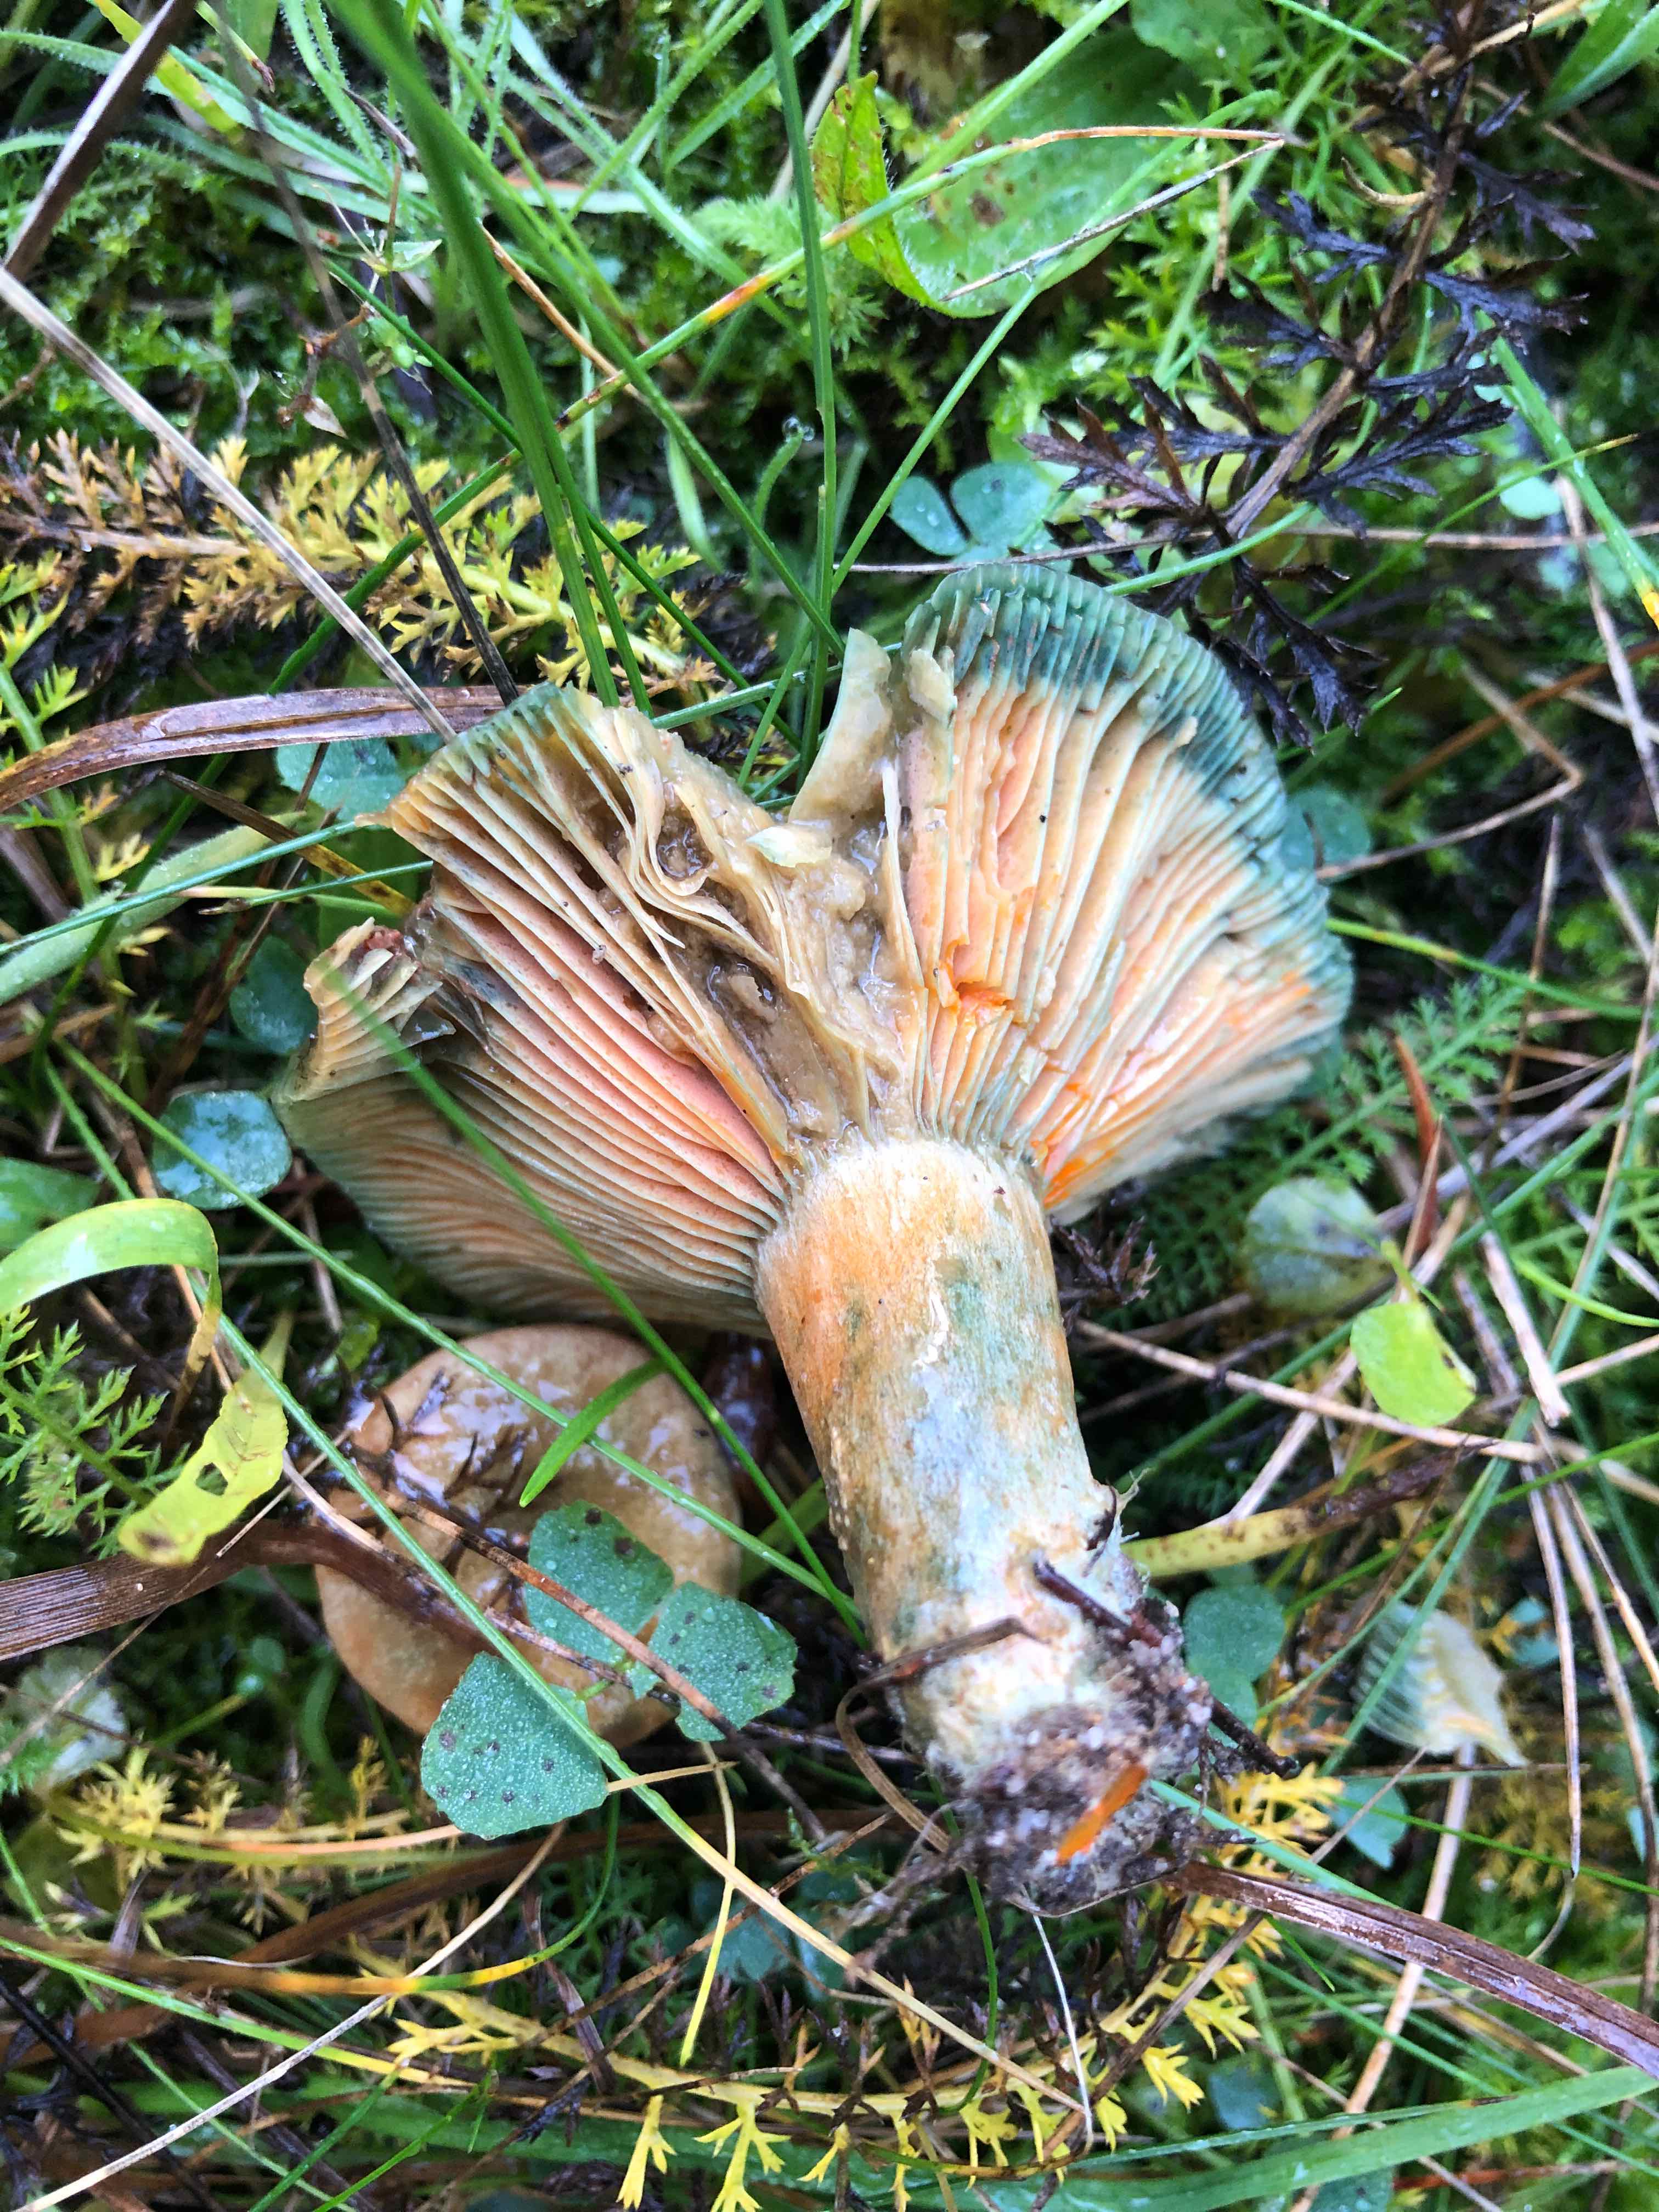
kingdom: Fungi
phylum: Basidiomycota
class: Agaricomycetes
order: Russulales
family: Russulaceae
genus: Lactarius
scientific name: Lactarius deterrimus
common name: gran-mælkehat
